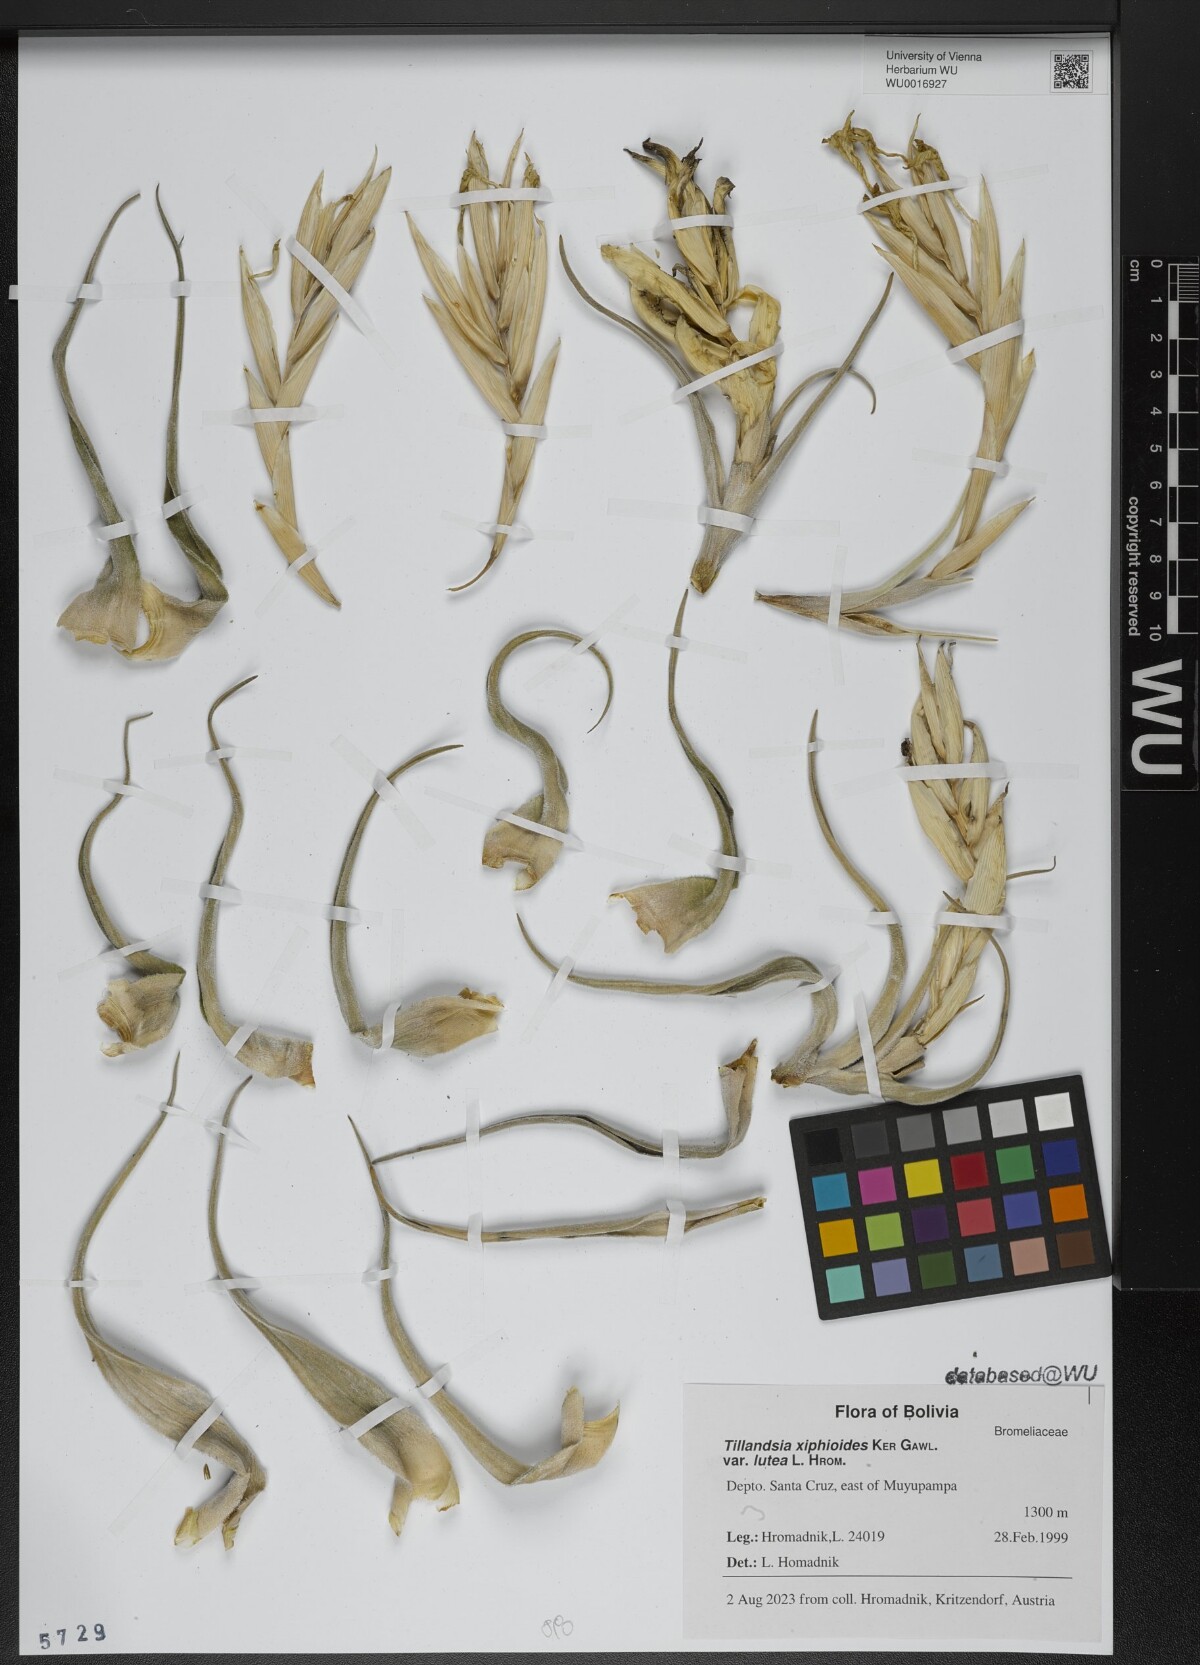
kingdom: Plantae
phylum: Tracheophyta
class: Liliopsida
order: Poales
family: Bromeliaceae
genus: Tillandsia
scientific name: Tillandsia xiphioides
